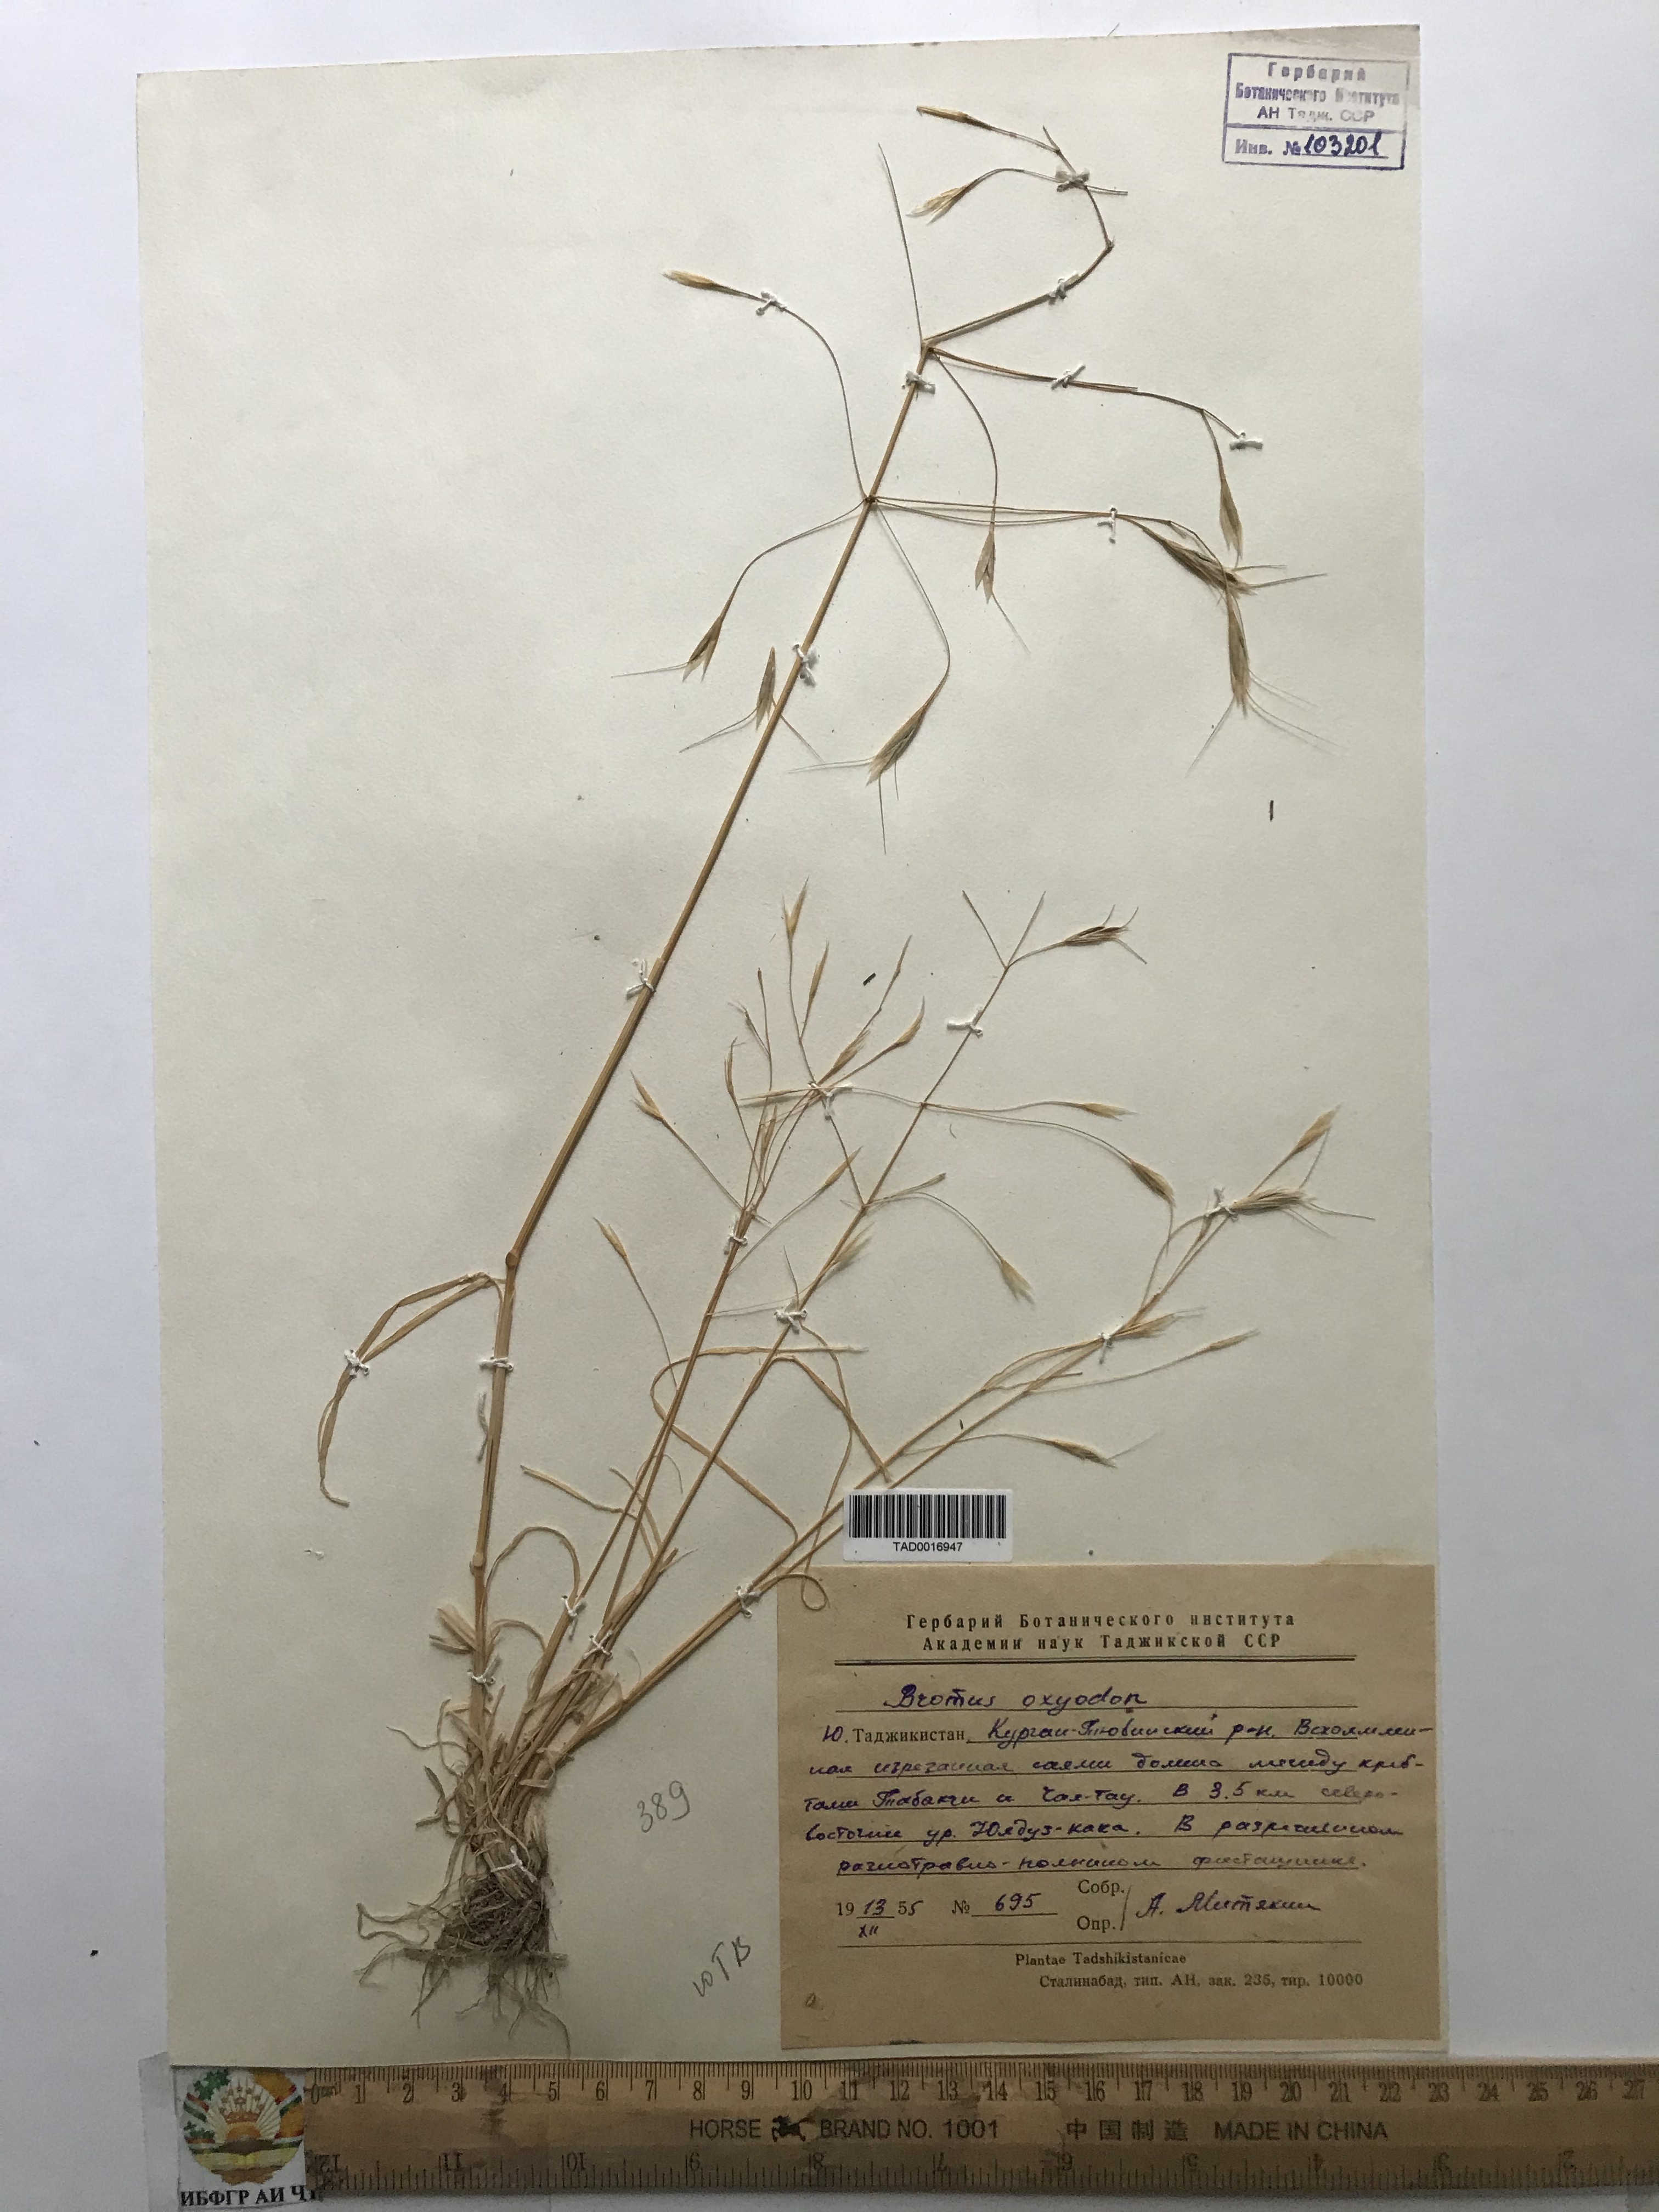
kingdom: Plantae
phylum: Tracheophyta
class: Liliopsida
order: Poales
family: Poaceae
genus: Bromus
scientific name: Bromus oxyodon
